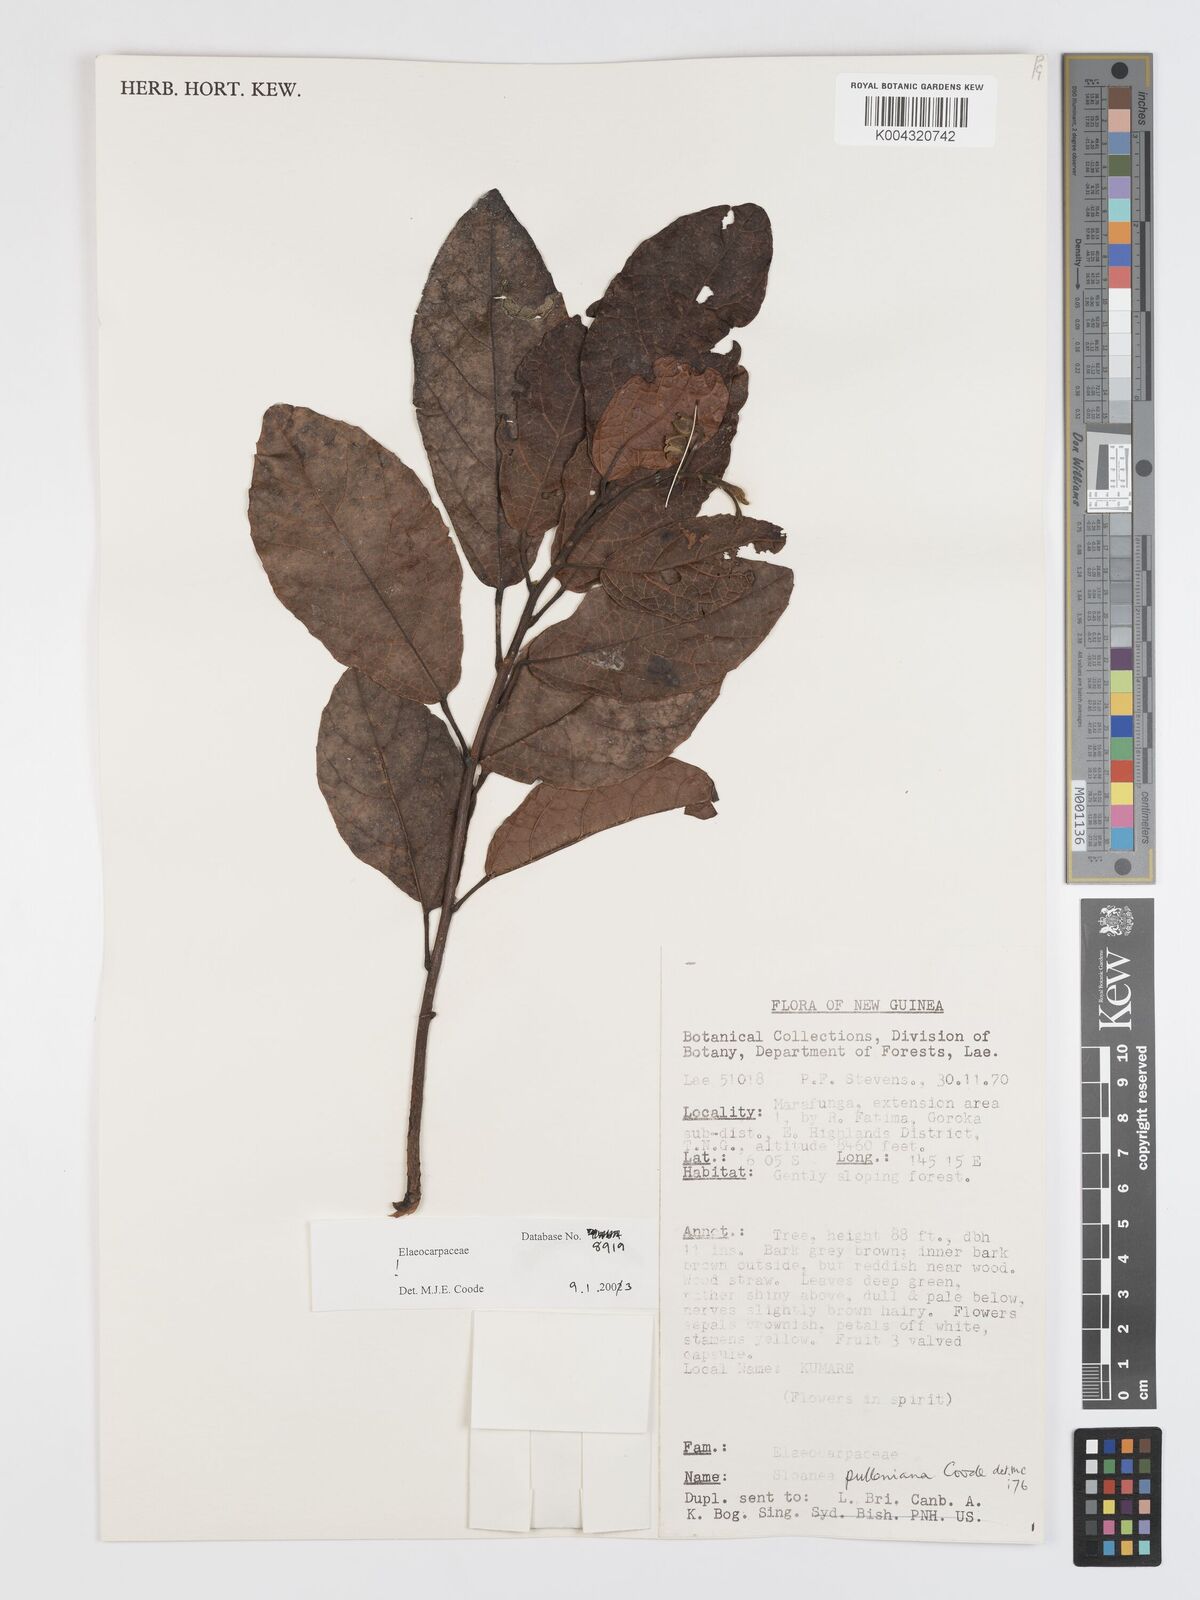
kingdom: Plantae
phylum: Tracheophyta
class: Magnoliopsida
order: Oxalidales
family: Elaeocarpaceae
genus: Sloanea
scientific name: Sloanea pulleniana
